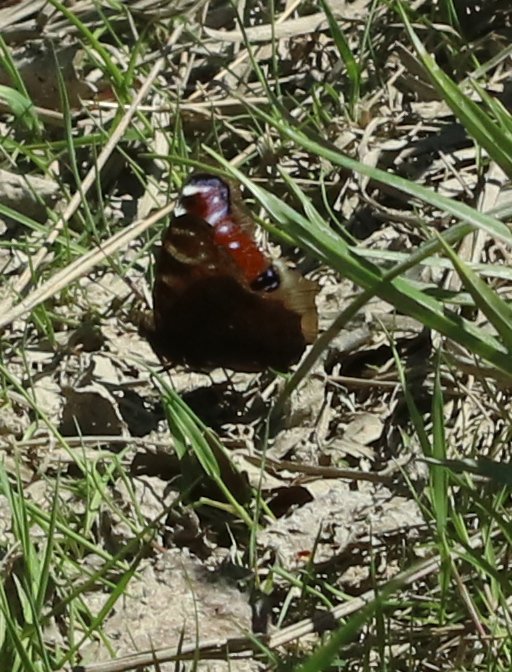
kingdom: Animalia
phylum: Arthropoda
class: Insecta
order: Lepidoptera
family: Nymphalidae
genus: Aglais
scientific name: Aglais io
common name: European Peacock
